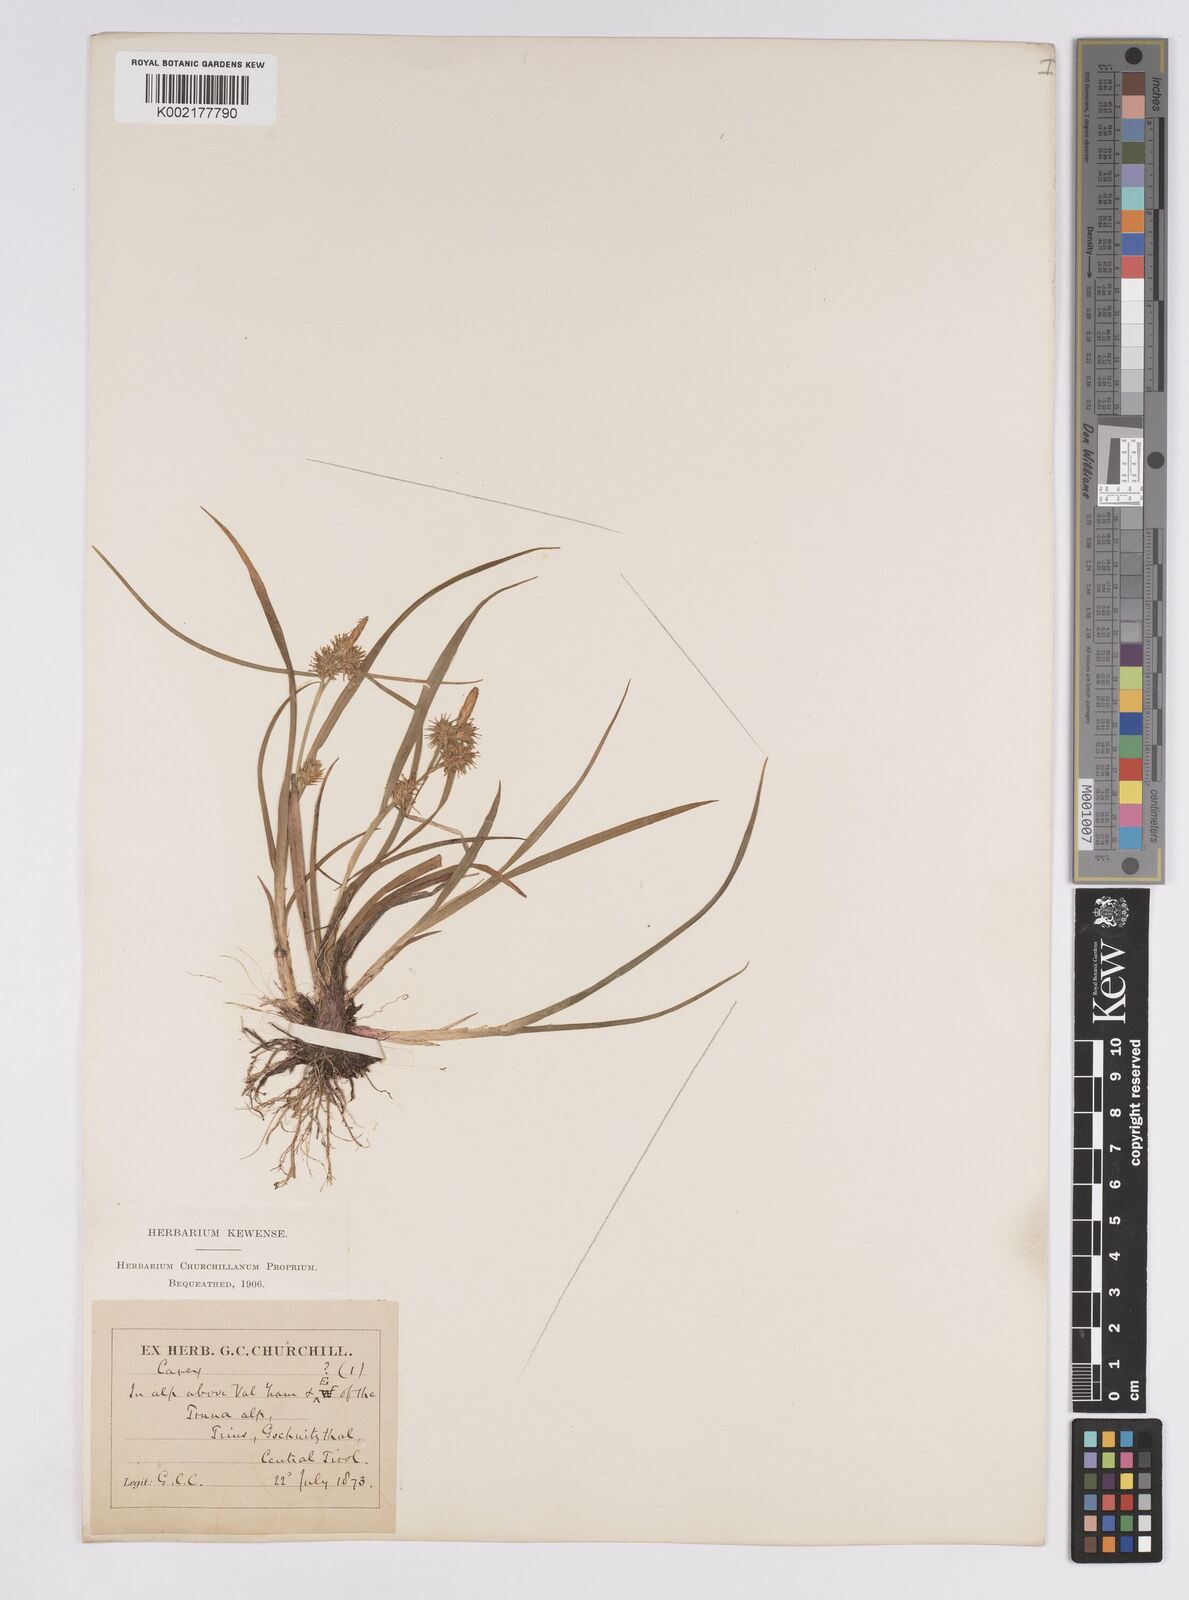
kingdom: Plantae
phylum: Tracheophyta
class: Liliopsida
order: Poales
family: Cyperaceae
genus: Carex
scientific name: Carex flava
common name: Large yellow-sedge
